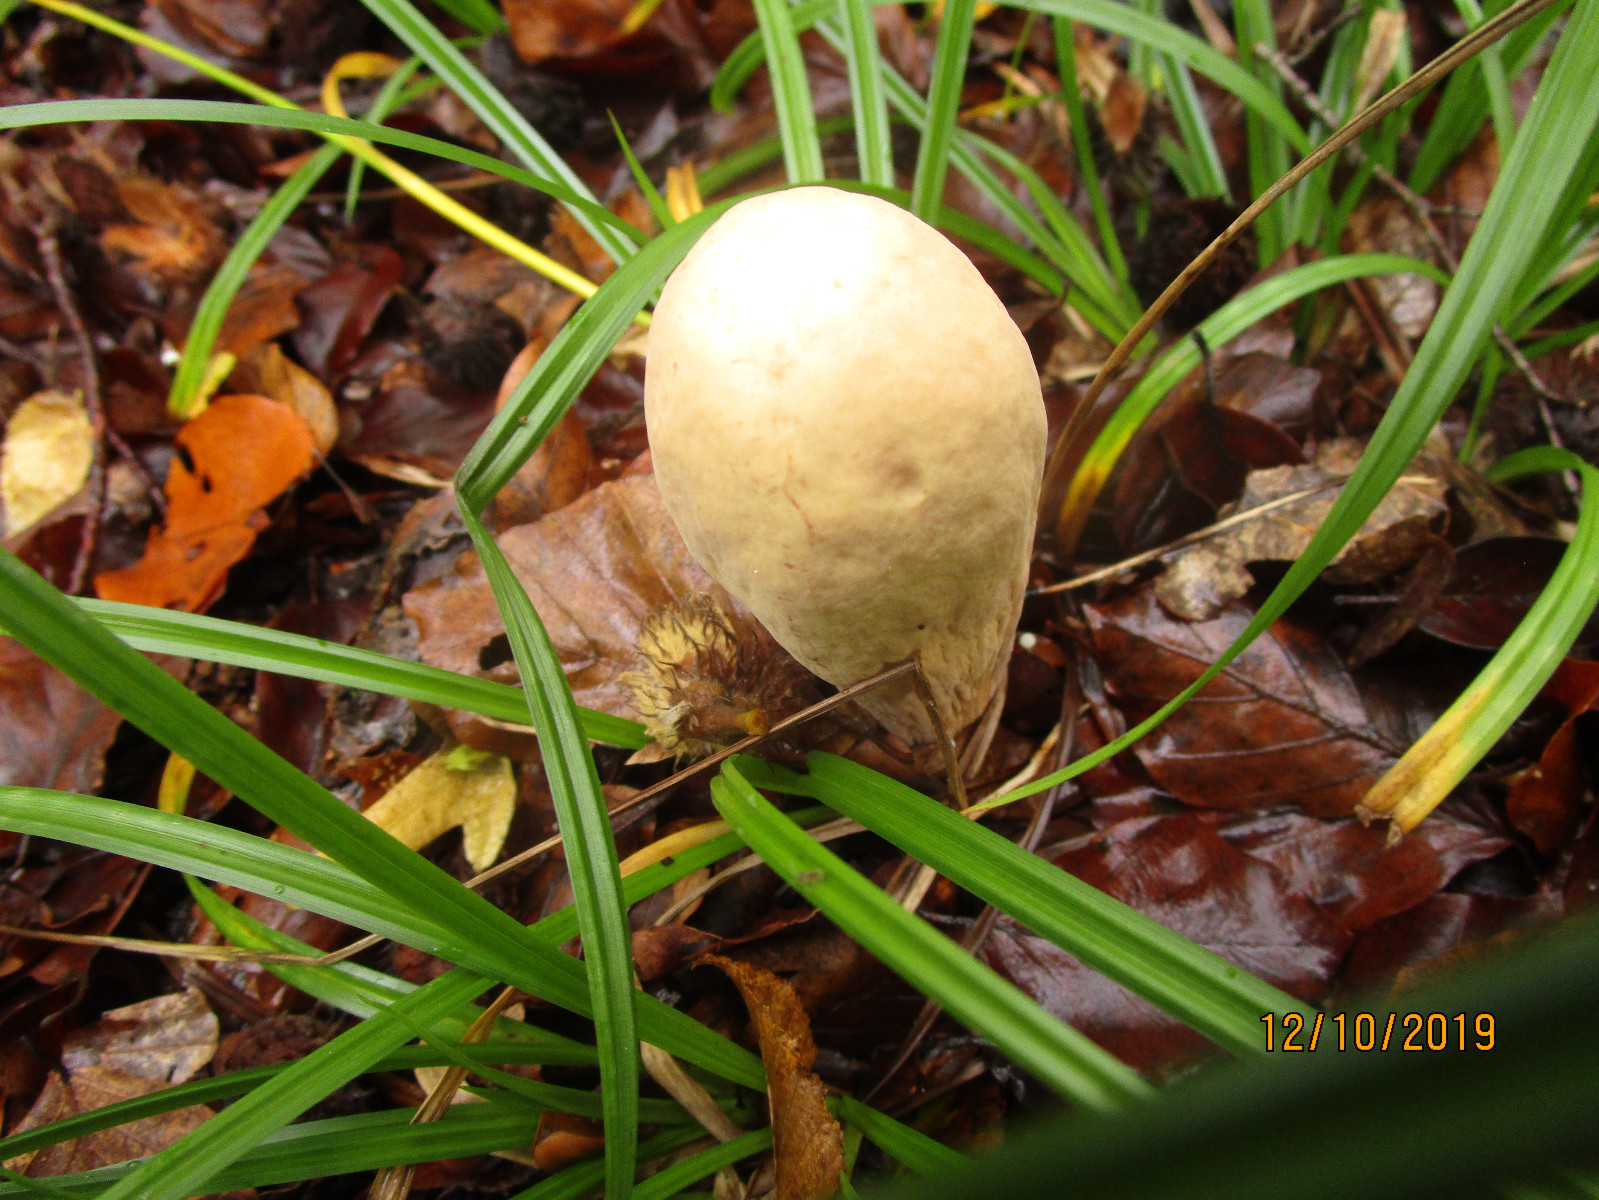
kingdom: Fungi
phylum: Basidiomycota
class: Agaricomycetes
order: Gomphales
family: Clavariadelphaceae
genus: Clavariadelphus
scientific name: Clavariadelphus pistillaris
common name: herkules-kæmpekølle
